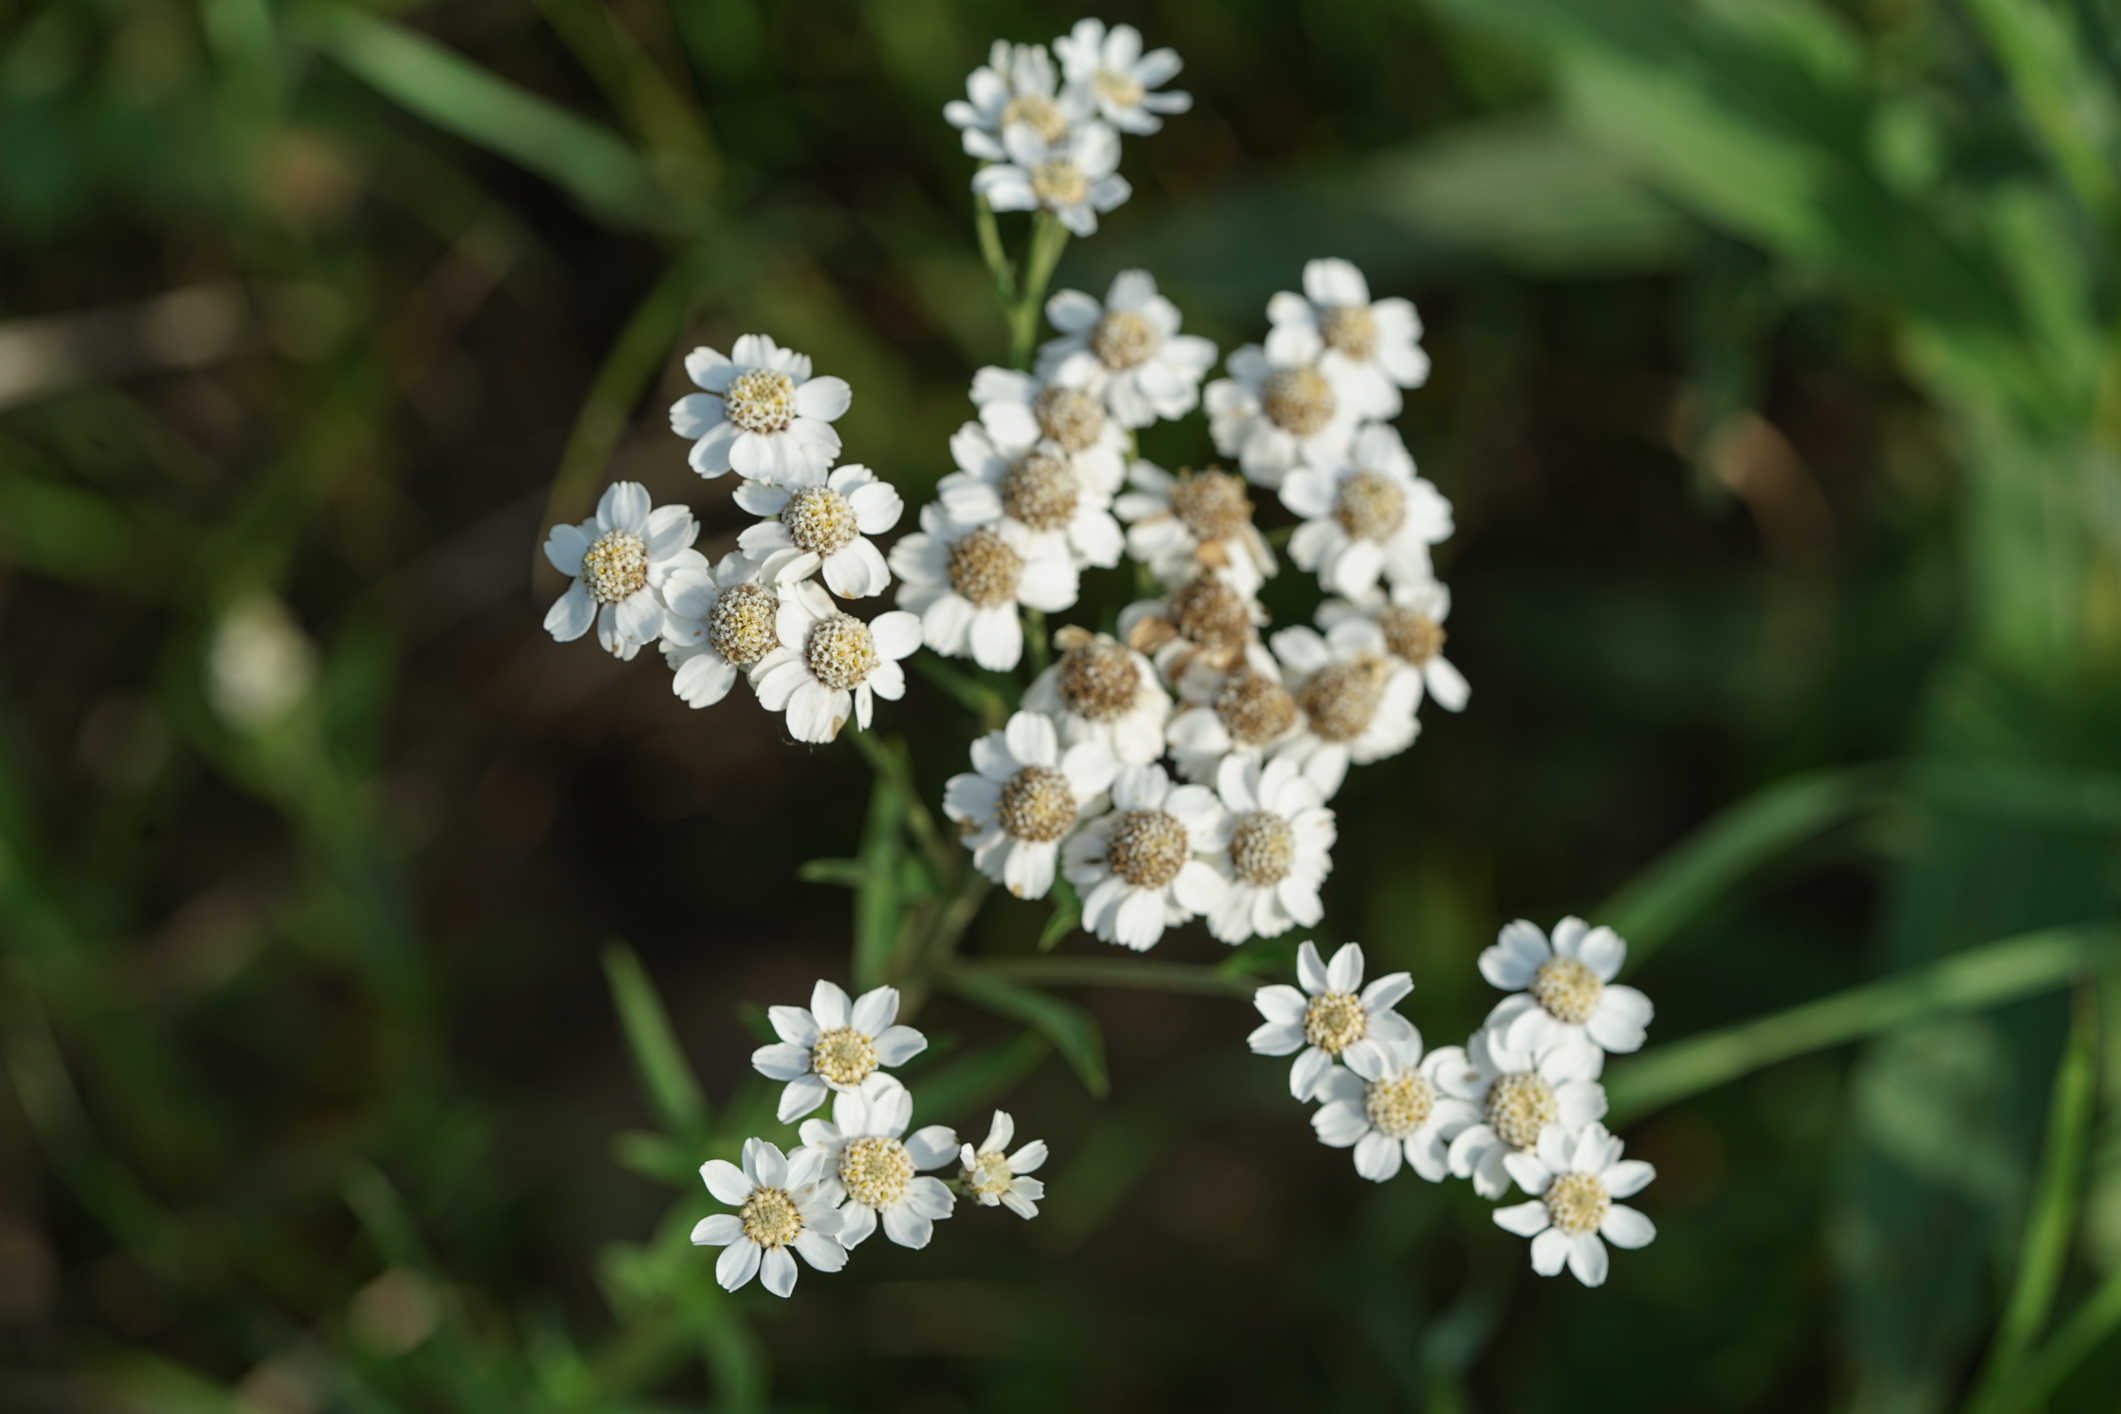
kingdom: Plantae
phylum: Tracheophyta
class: Magnoliopsida
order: Asterales
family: Asteraceae
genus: Achillea
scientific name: Achillea ptarmica
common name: Sneezeweed
